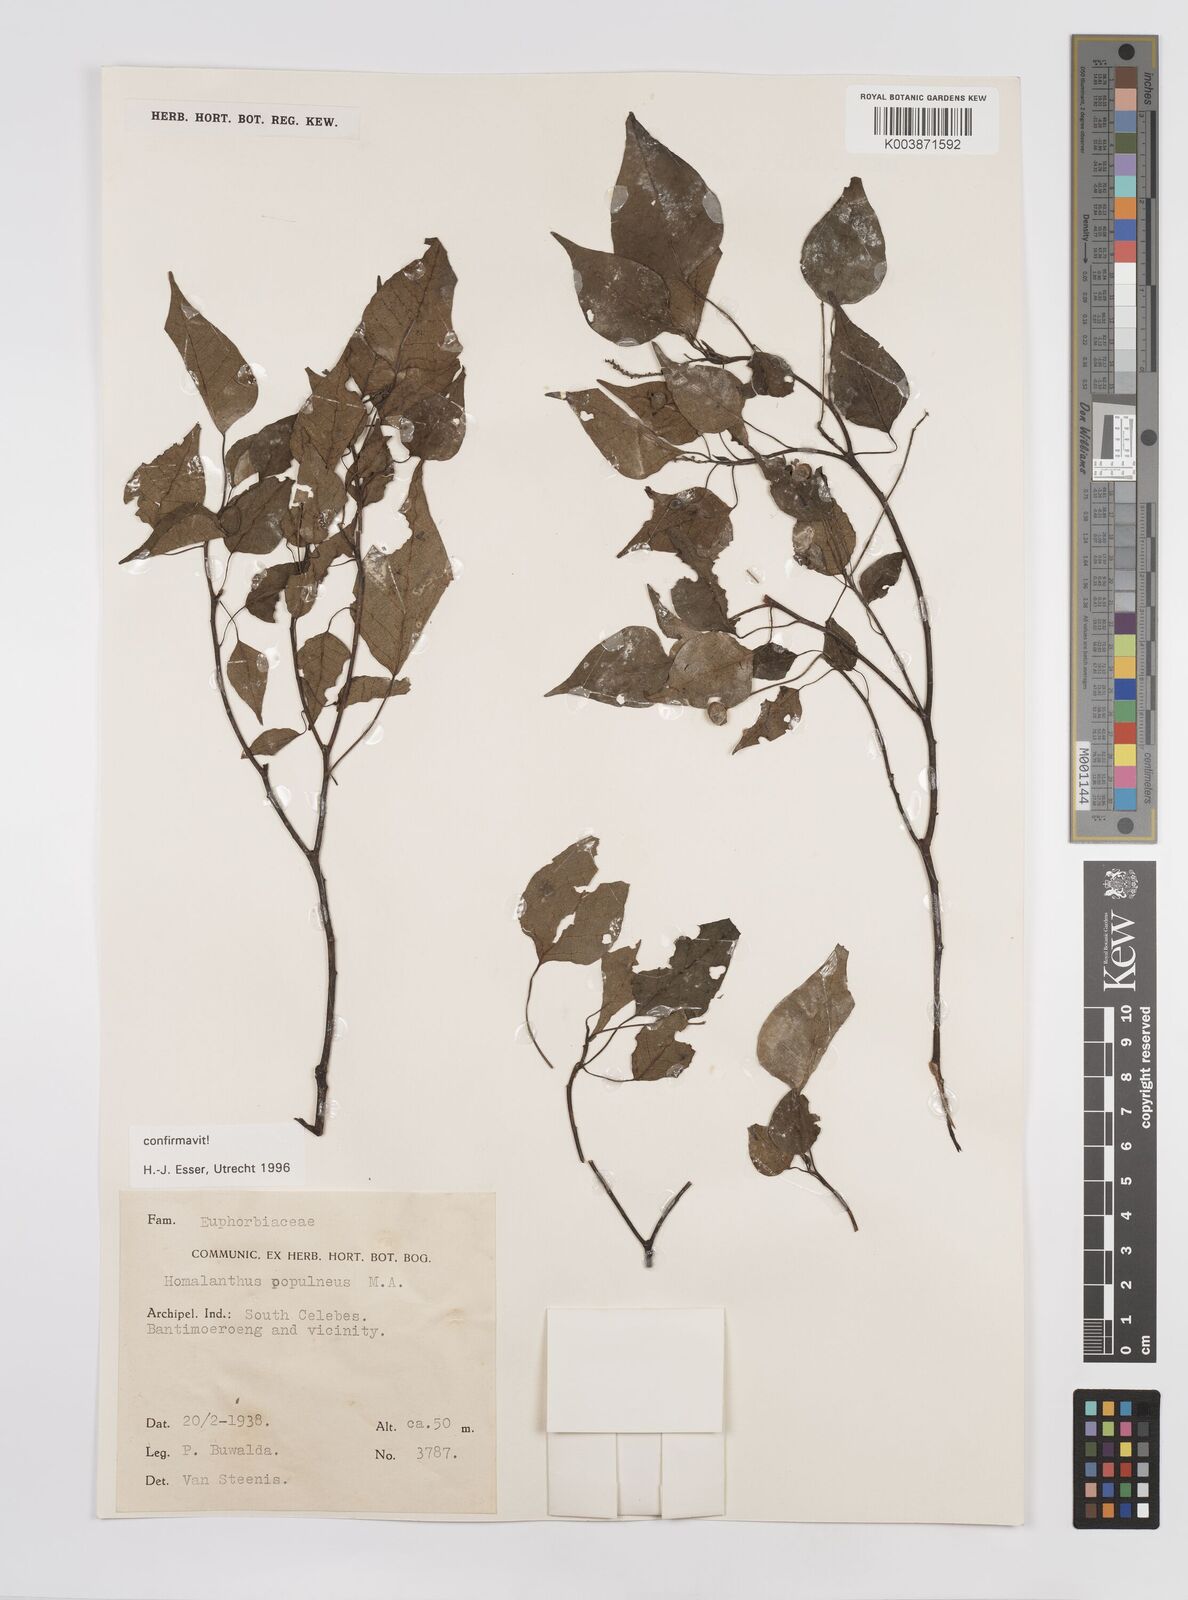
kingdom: Plantae
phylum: Tracheophyta
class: Magnoliopsida
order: Malpighiales
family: Euphorbiaceae
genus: Homalanthus
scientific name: Homalanthus populneus
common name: Spurge
